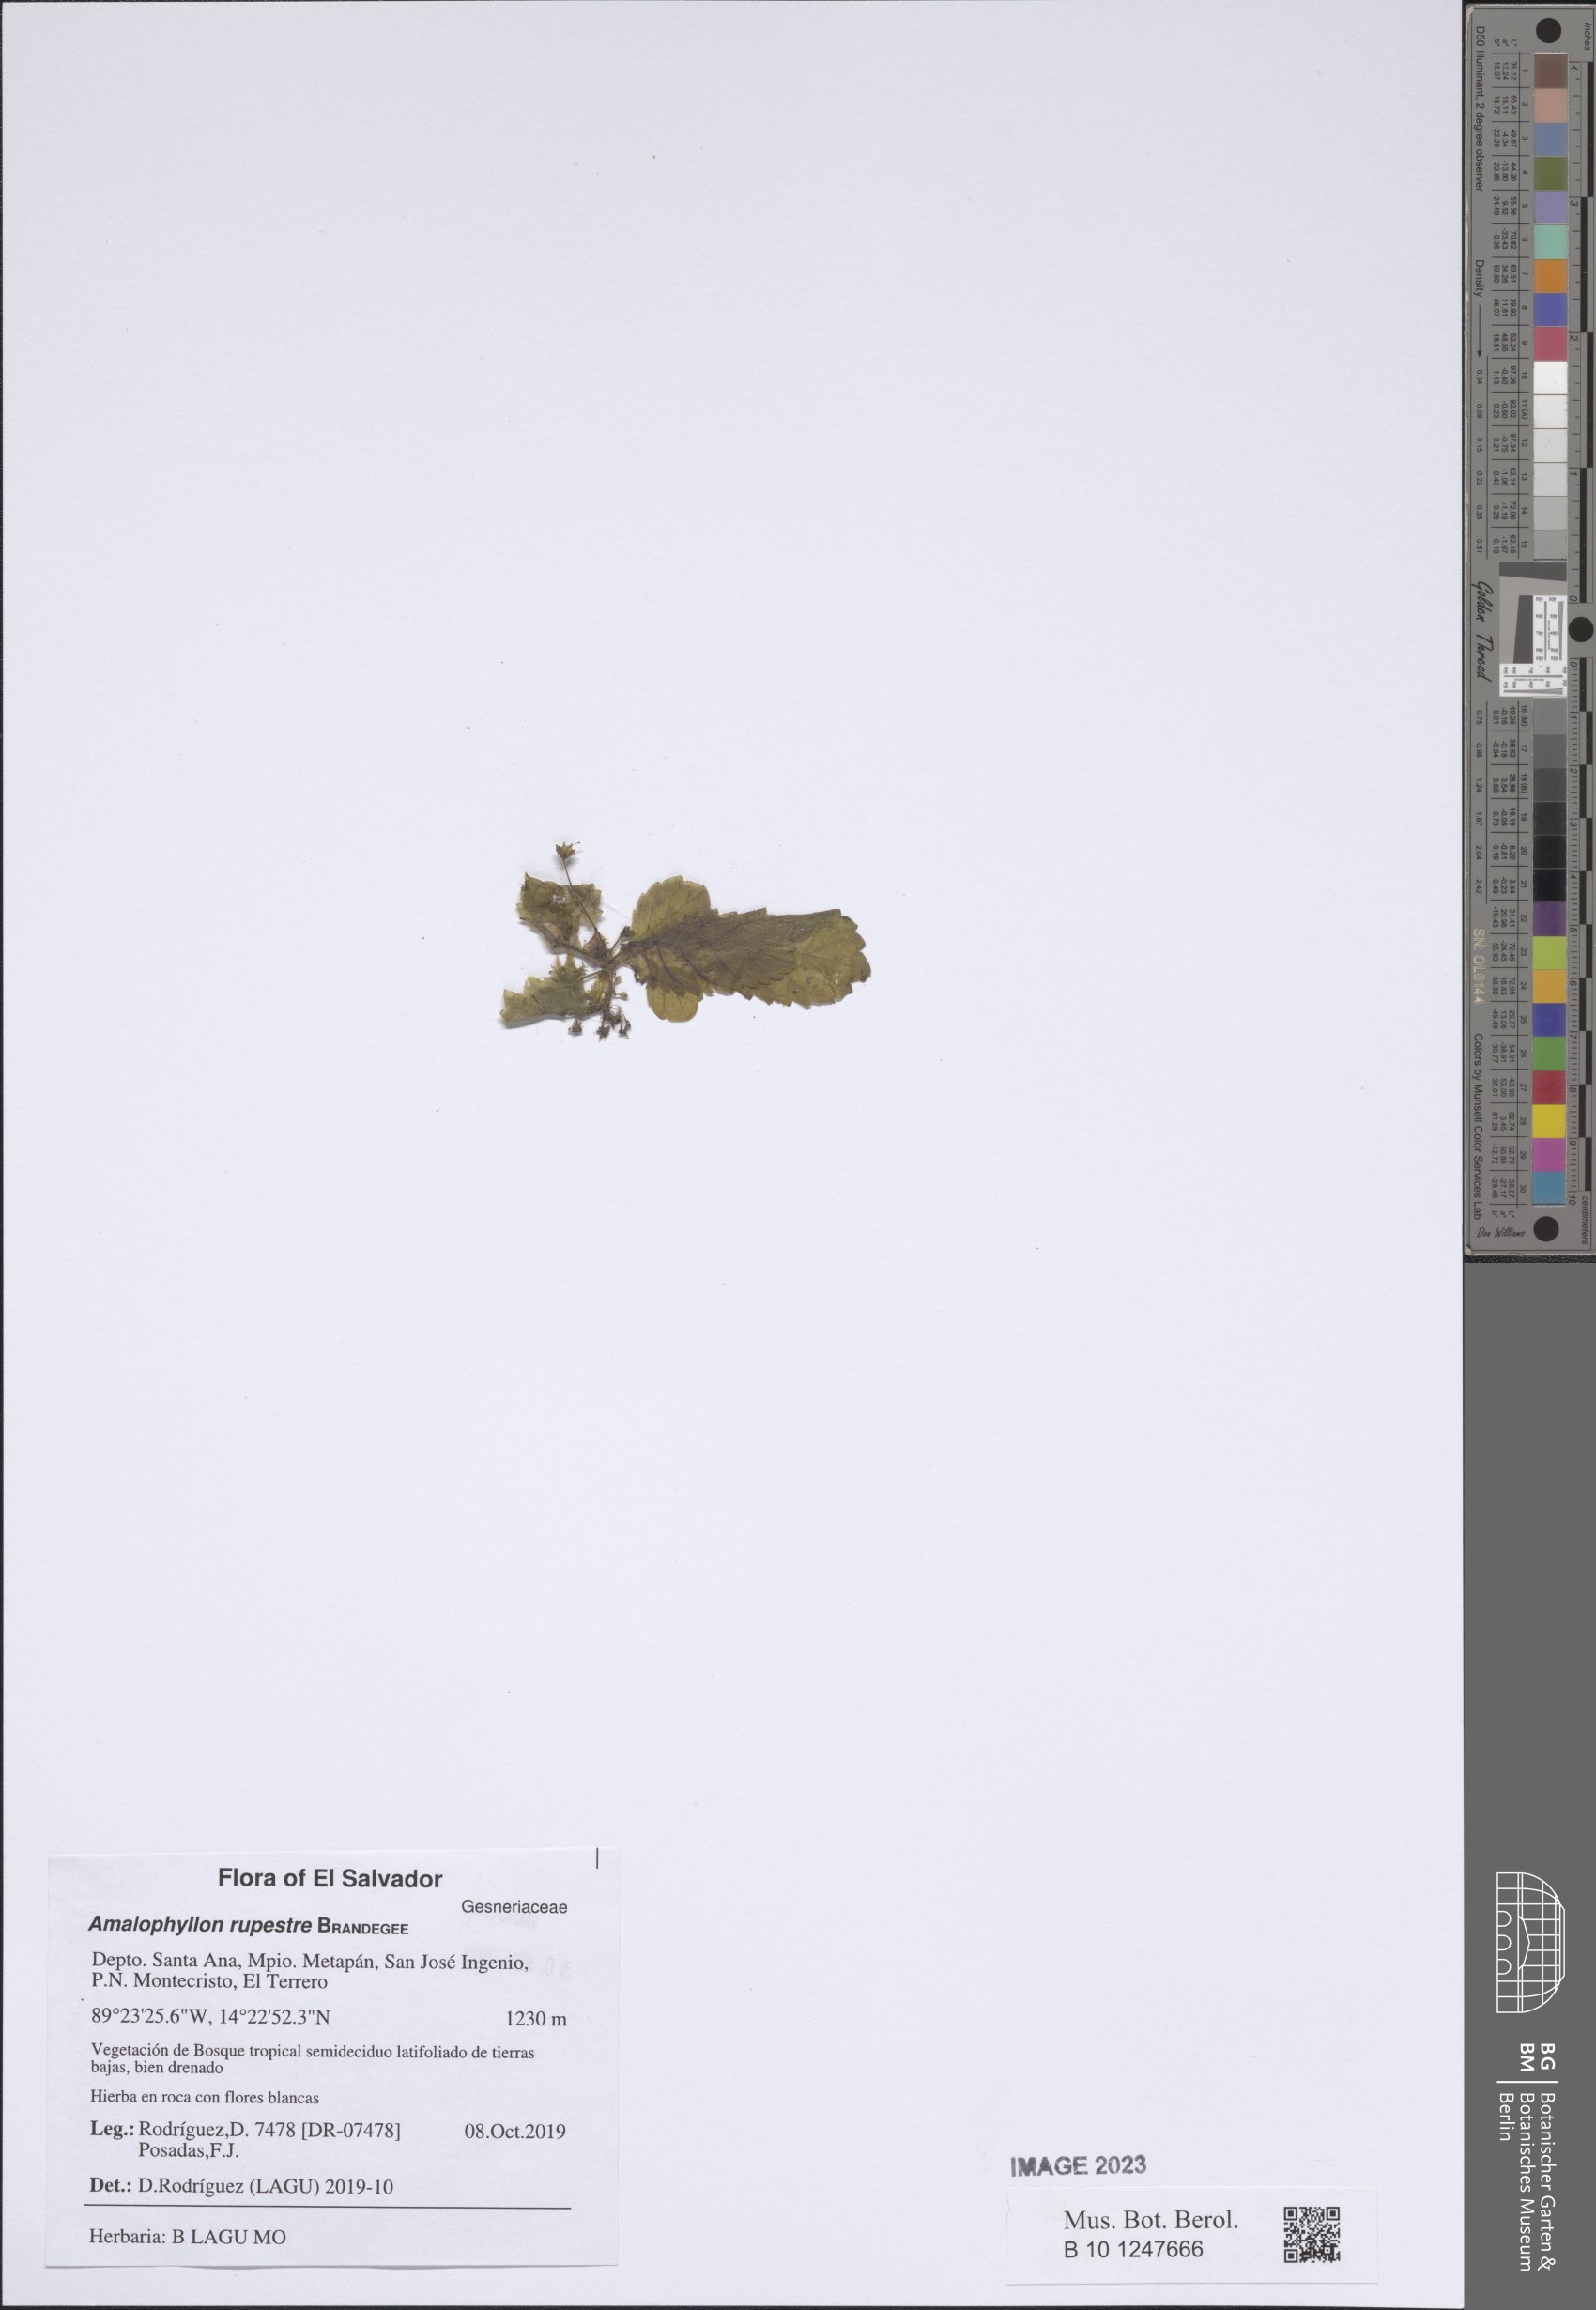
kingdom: Plantae
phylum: Tracheophyta
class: Magnoliopsida
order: Lamiales
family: Gesneriaceae
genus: Amalophyllon
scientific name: Amalophyllon rupestre
